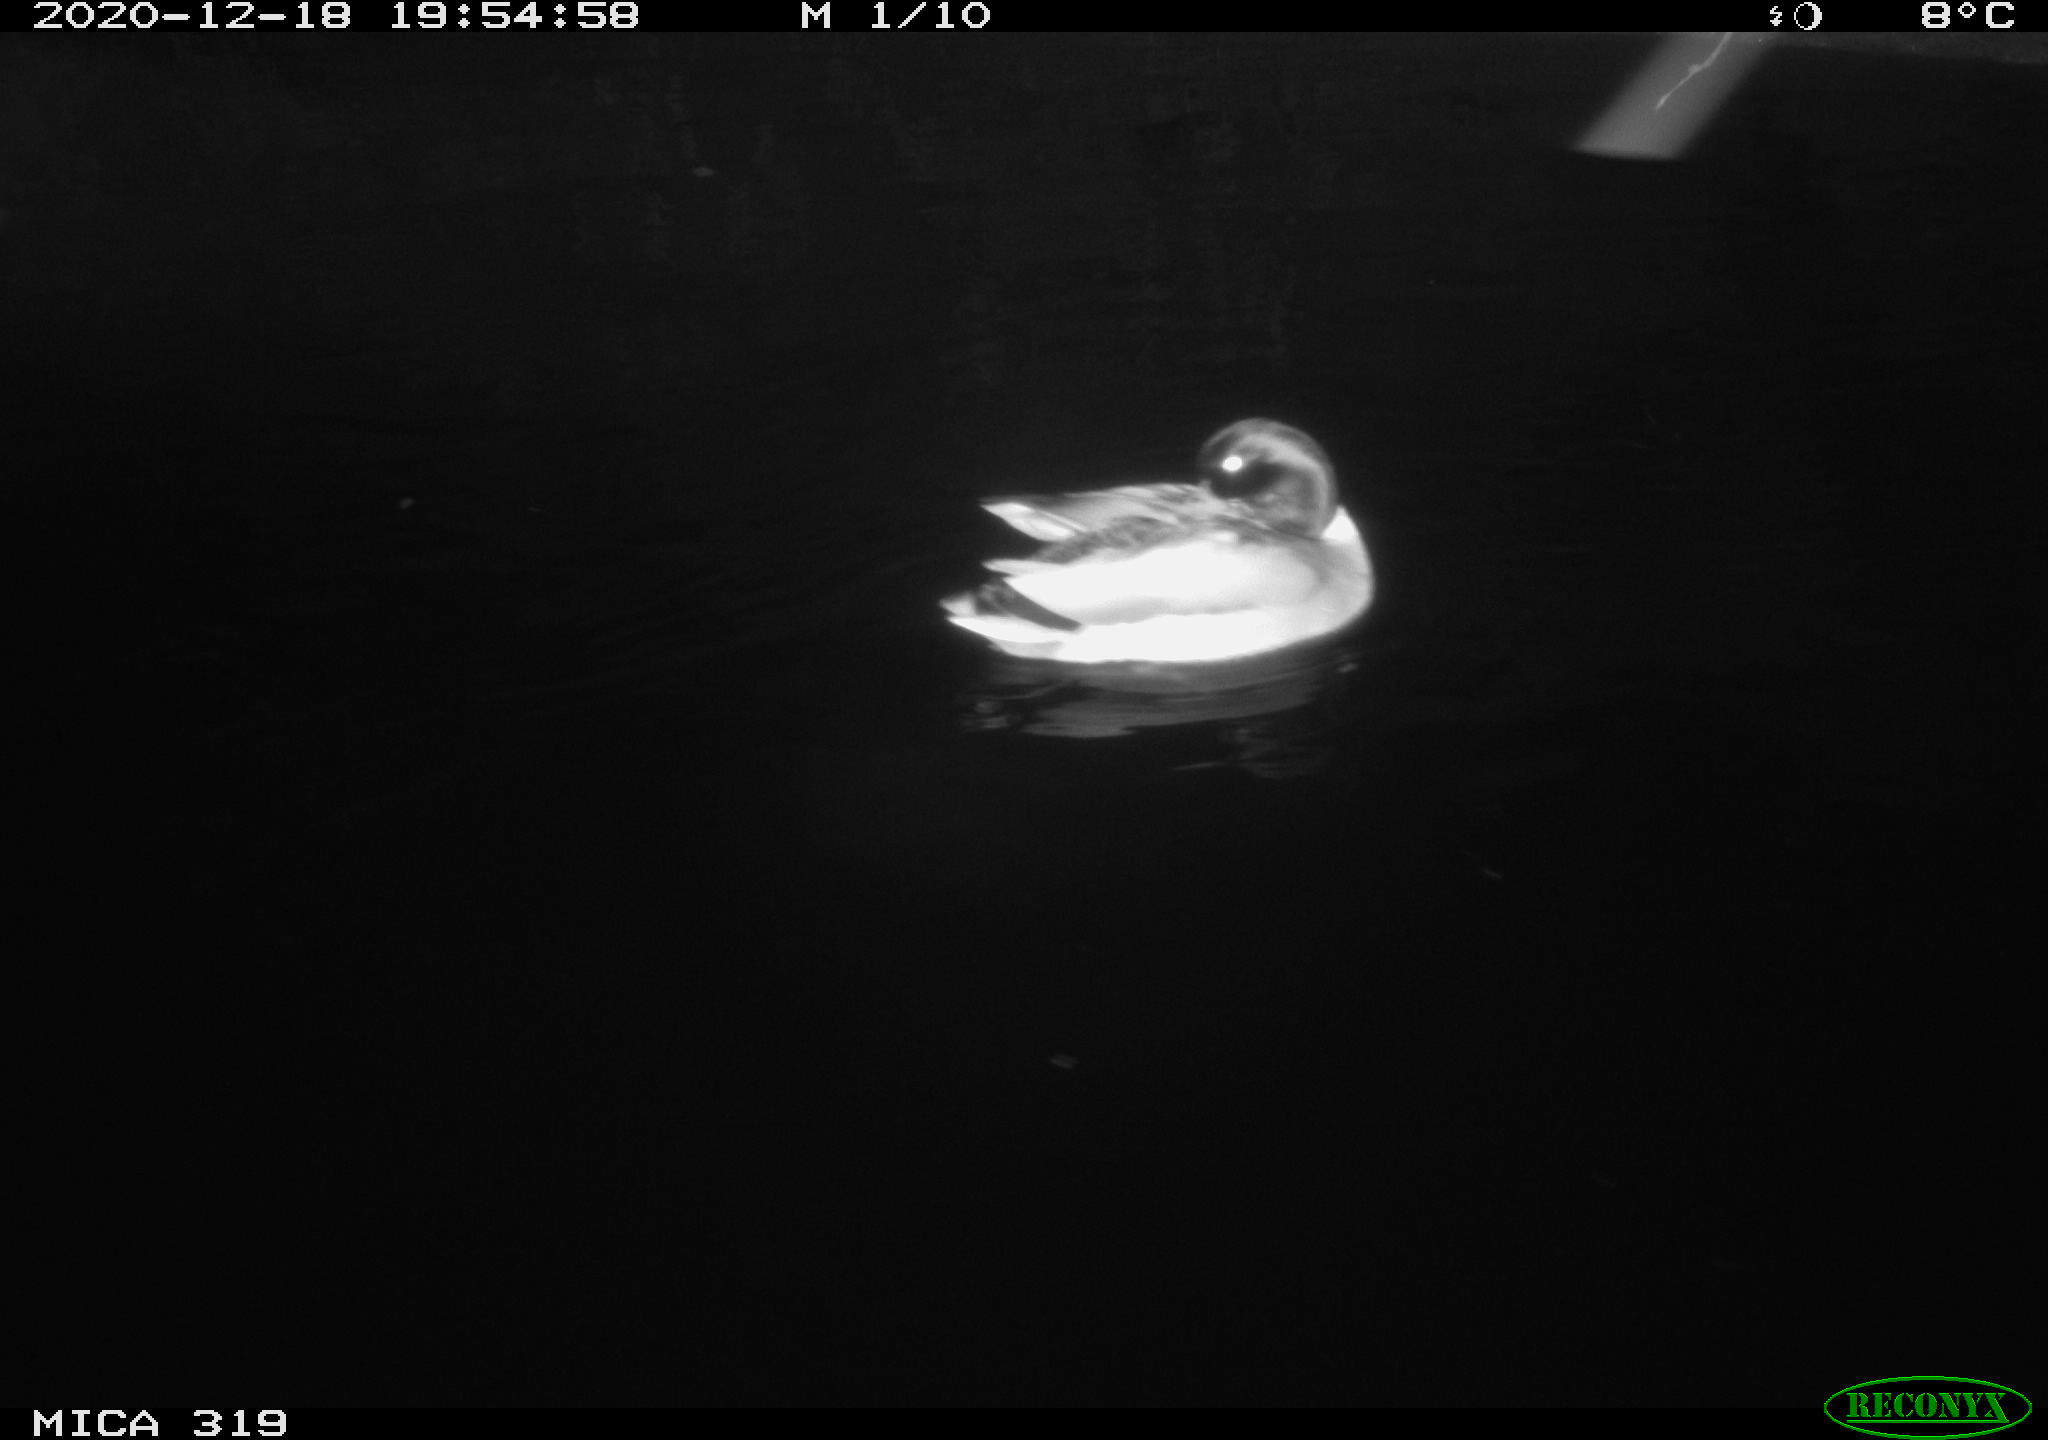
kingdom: Animalia
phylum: Chordata
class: Aves
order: Anseriformes
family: Anatidae
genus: Anas
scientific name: Anas platyrhynchos
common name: Mallard
